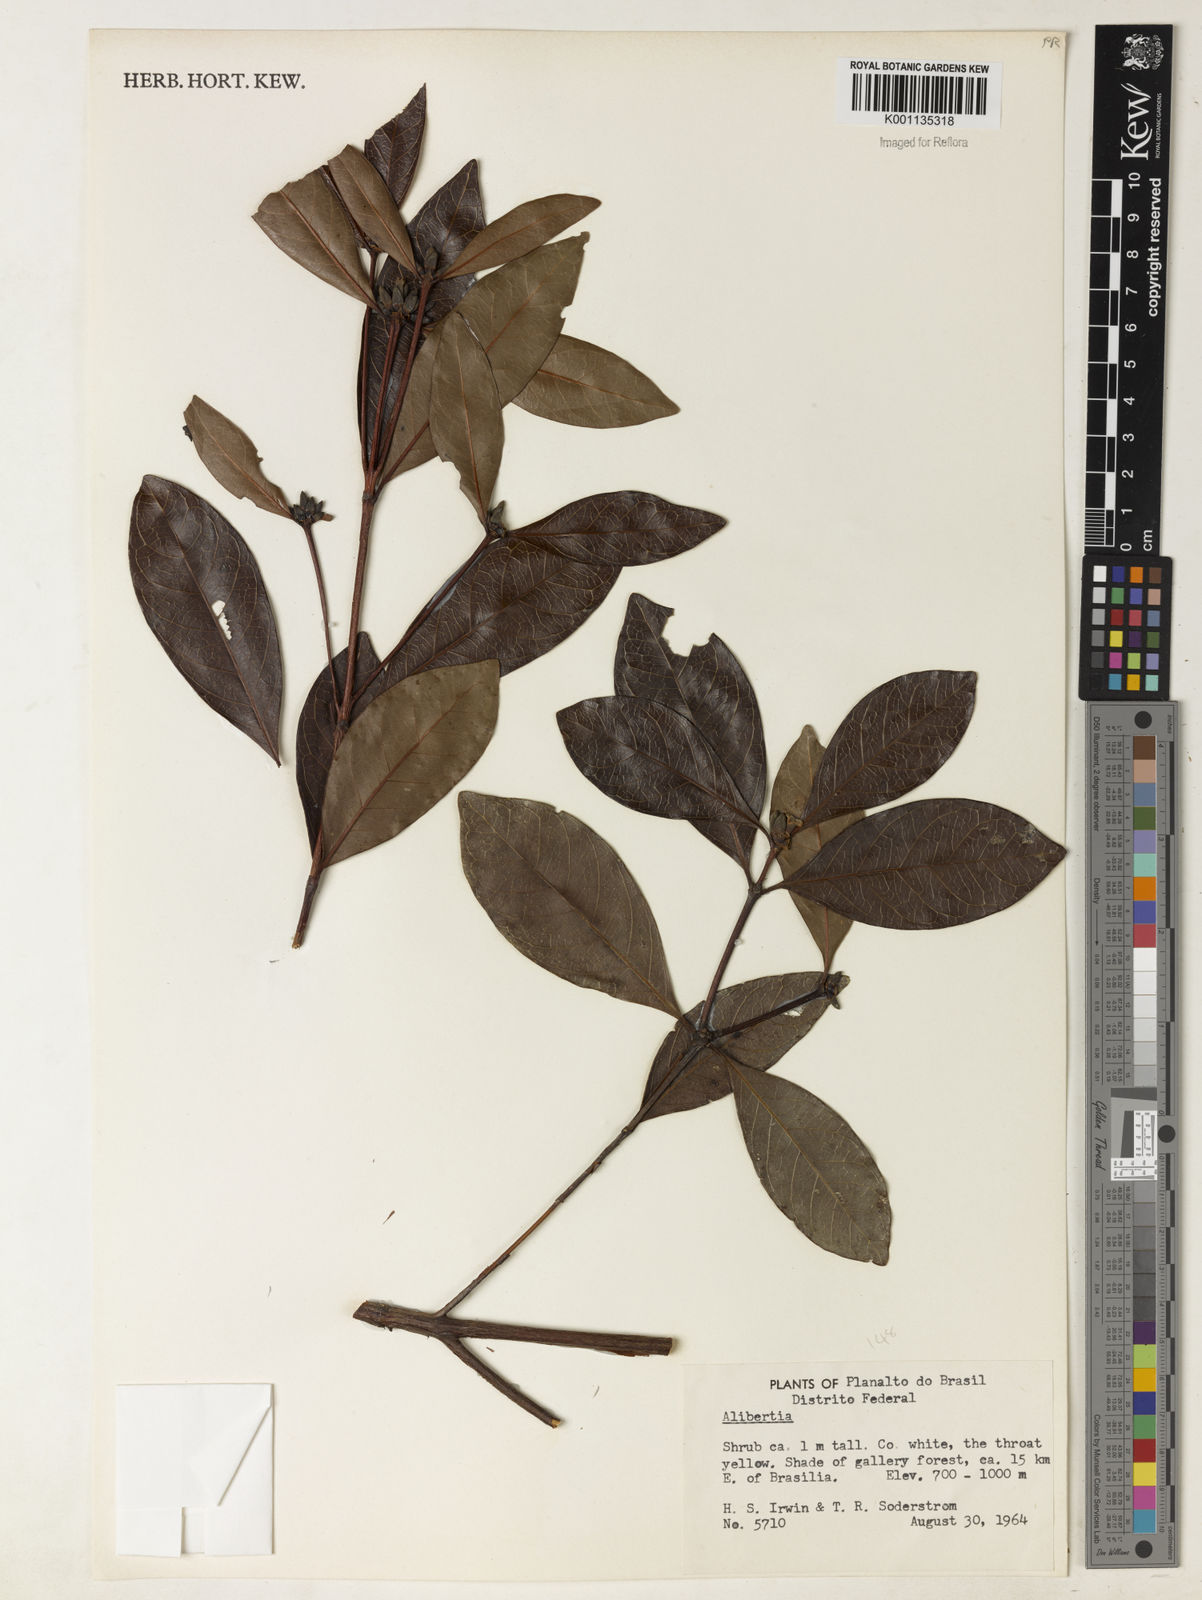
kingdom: Plantae
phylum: Tracheophyta
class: Magnoliopsida
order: Gentianales
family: Rubiaceae
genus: Cordiera
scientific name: Cordiera concolor
